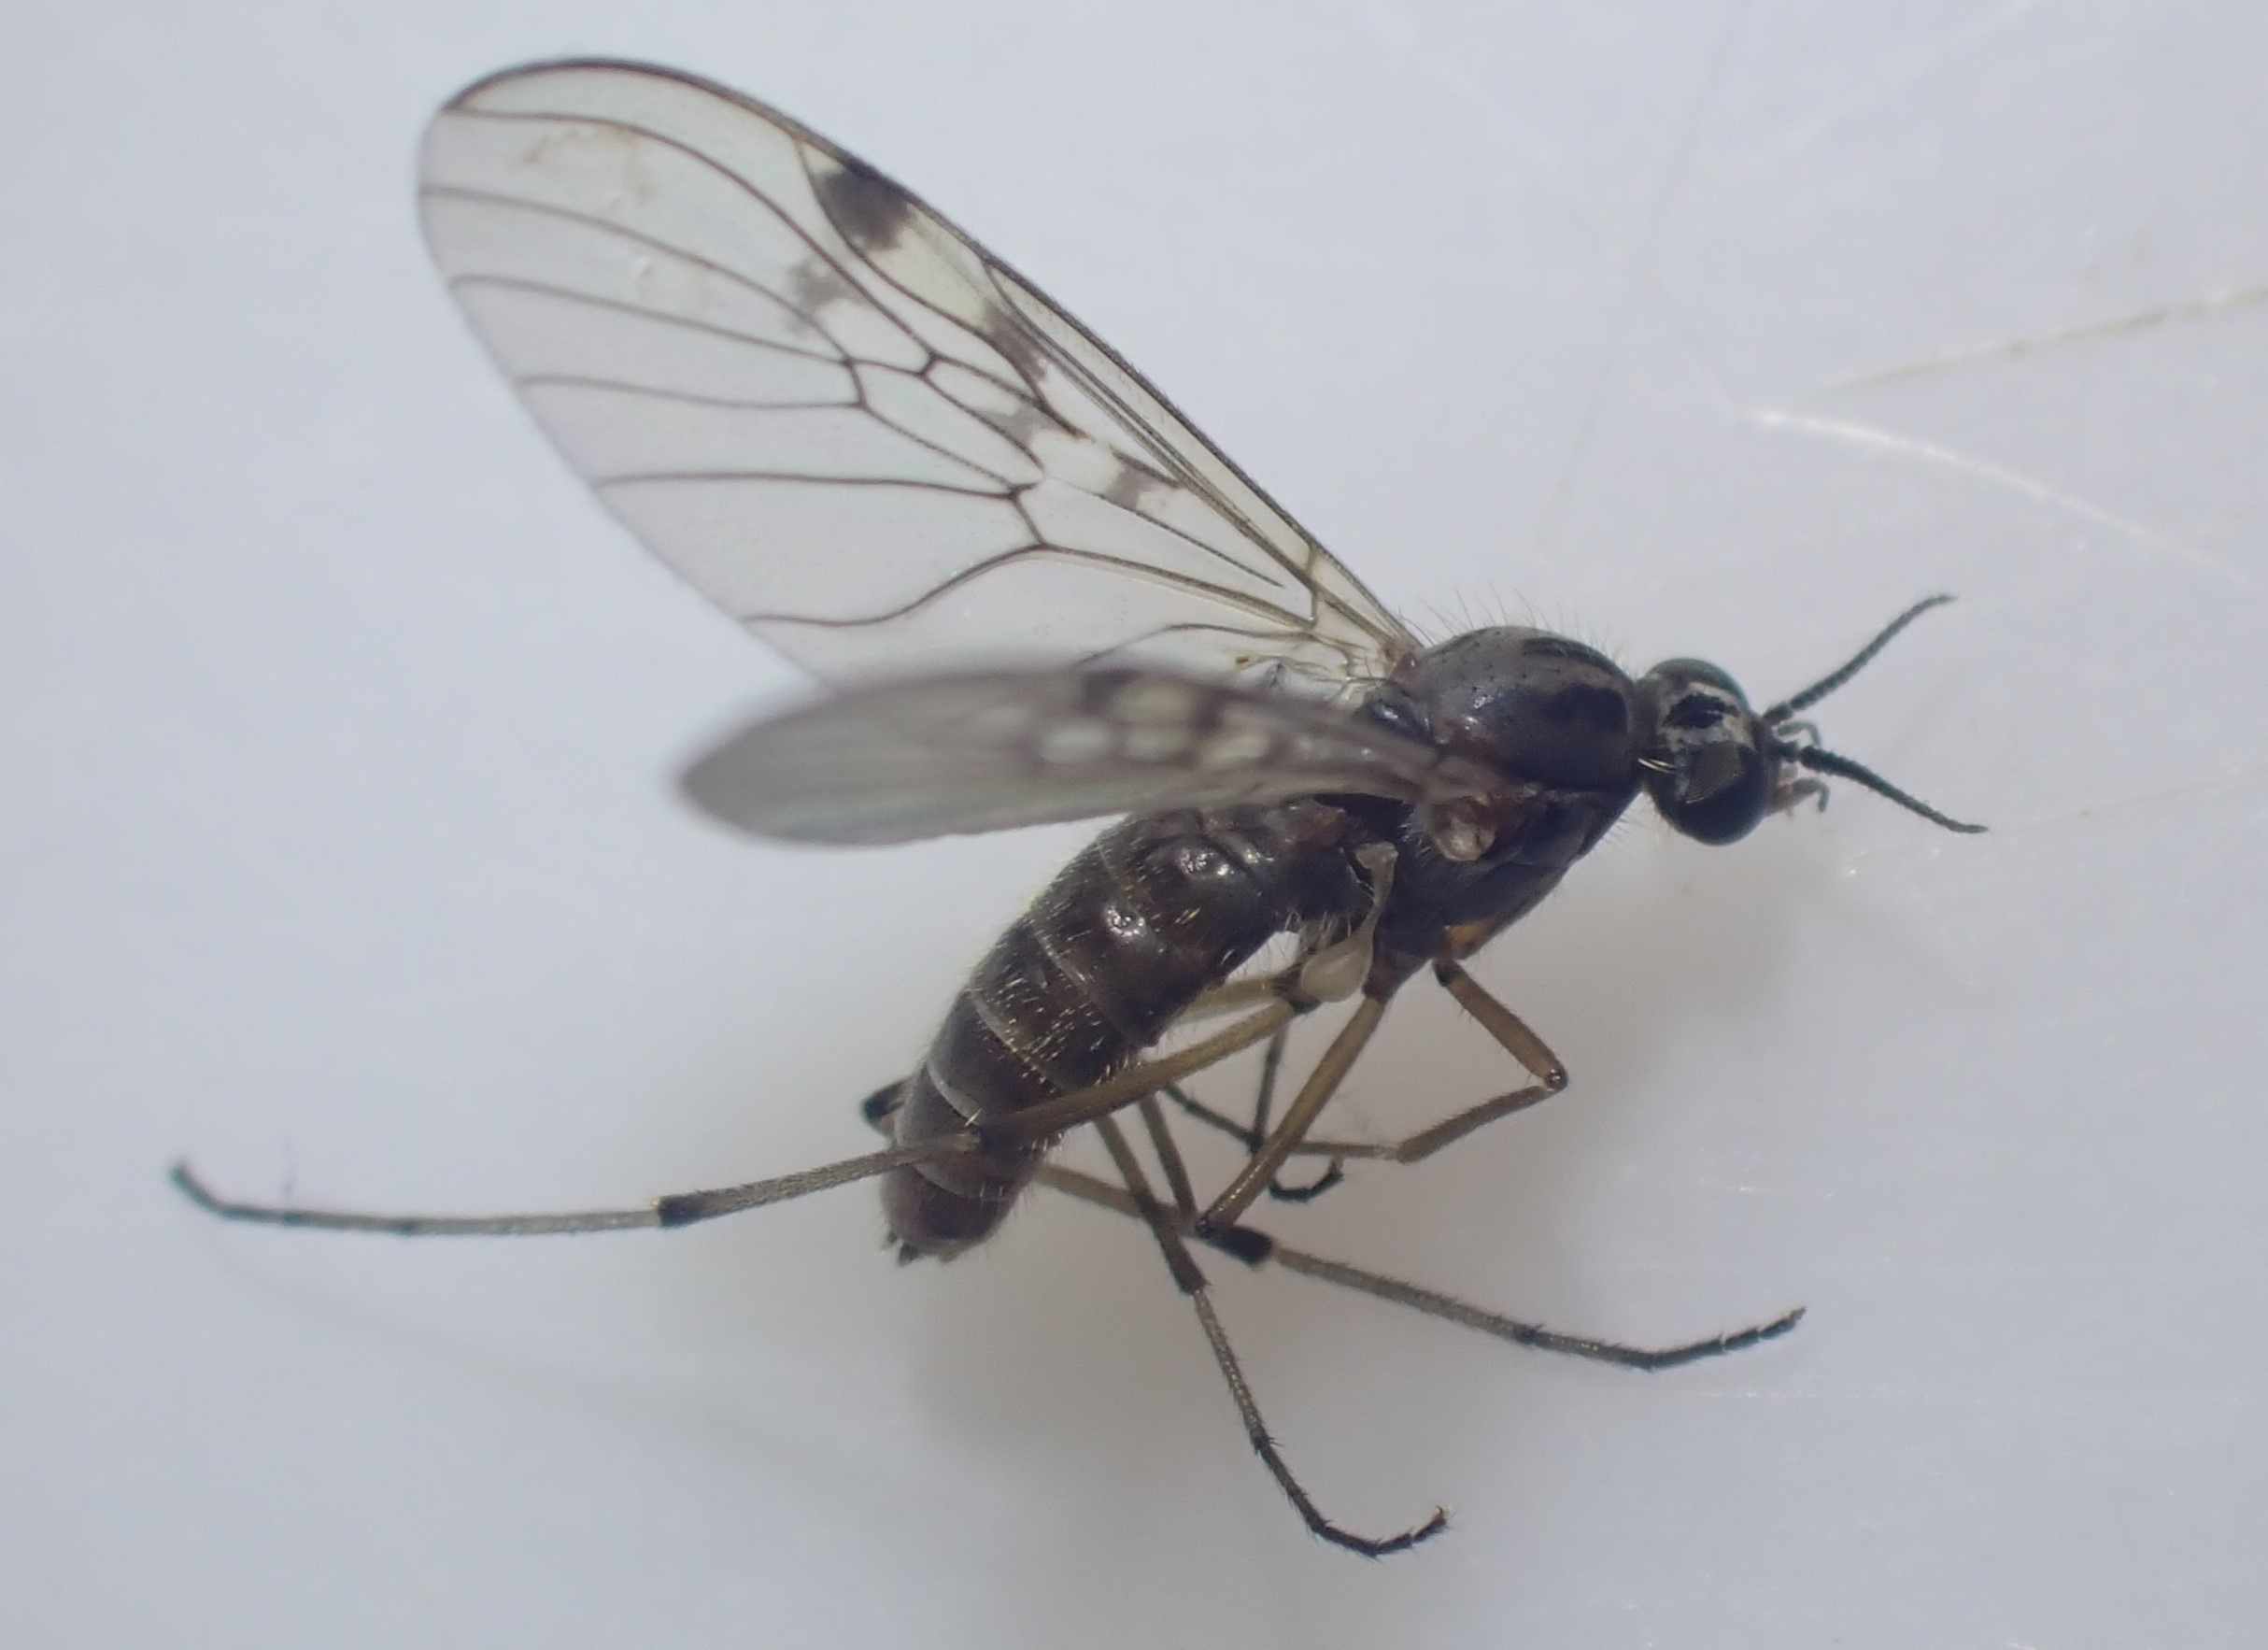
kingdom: Animalia
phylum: Arthropoda
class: Insecta
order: Diptera
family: Anisopodidae
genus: Sylvicola
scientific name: Sylvicola punctatus
